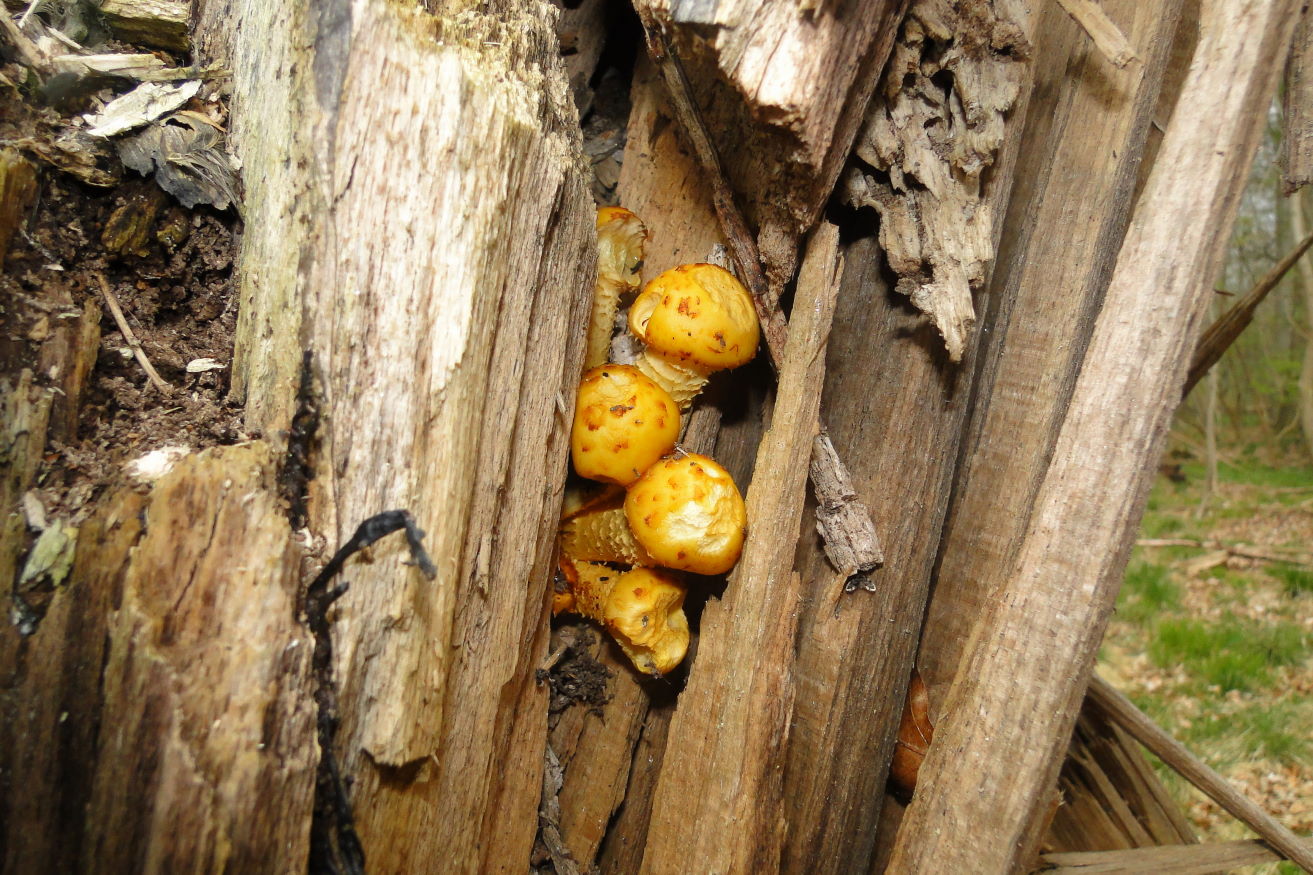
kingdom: Fungi
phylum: Basidiomycota
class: Agaricomycetes
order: Agaricales
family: Strophariaceae
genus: Pholiota
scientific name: Pholiota adiposa
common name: højtsiddende skælhat
